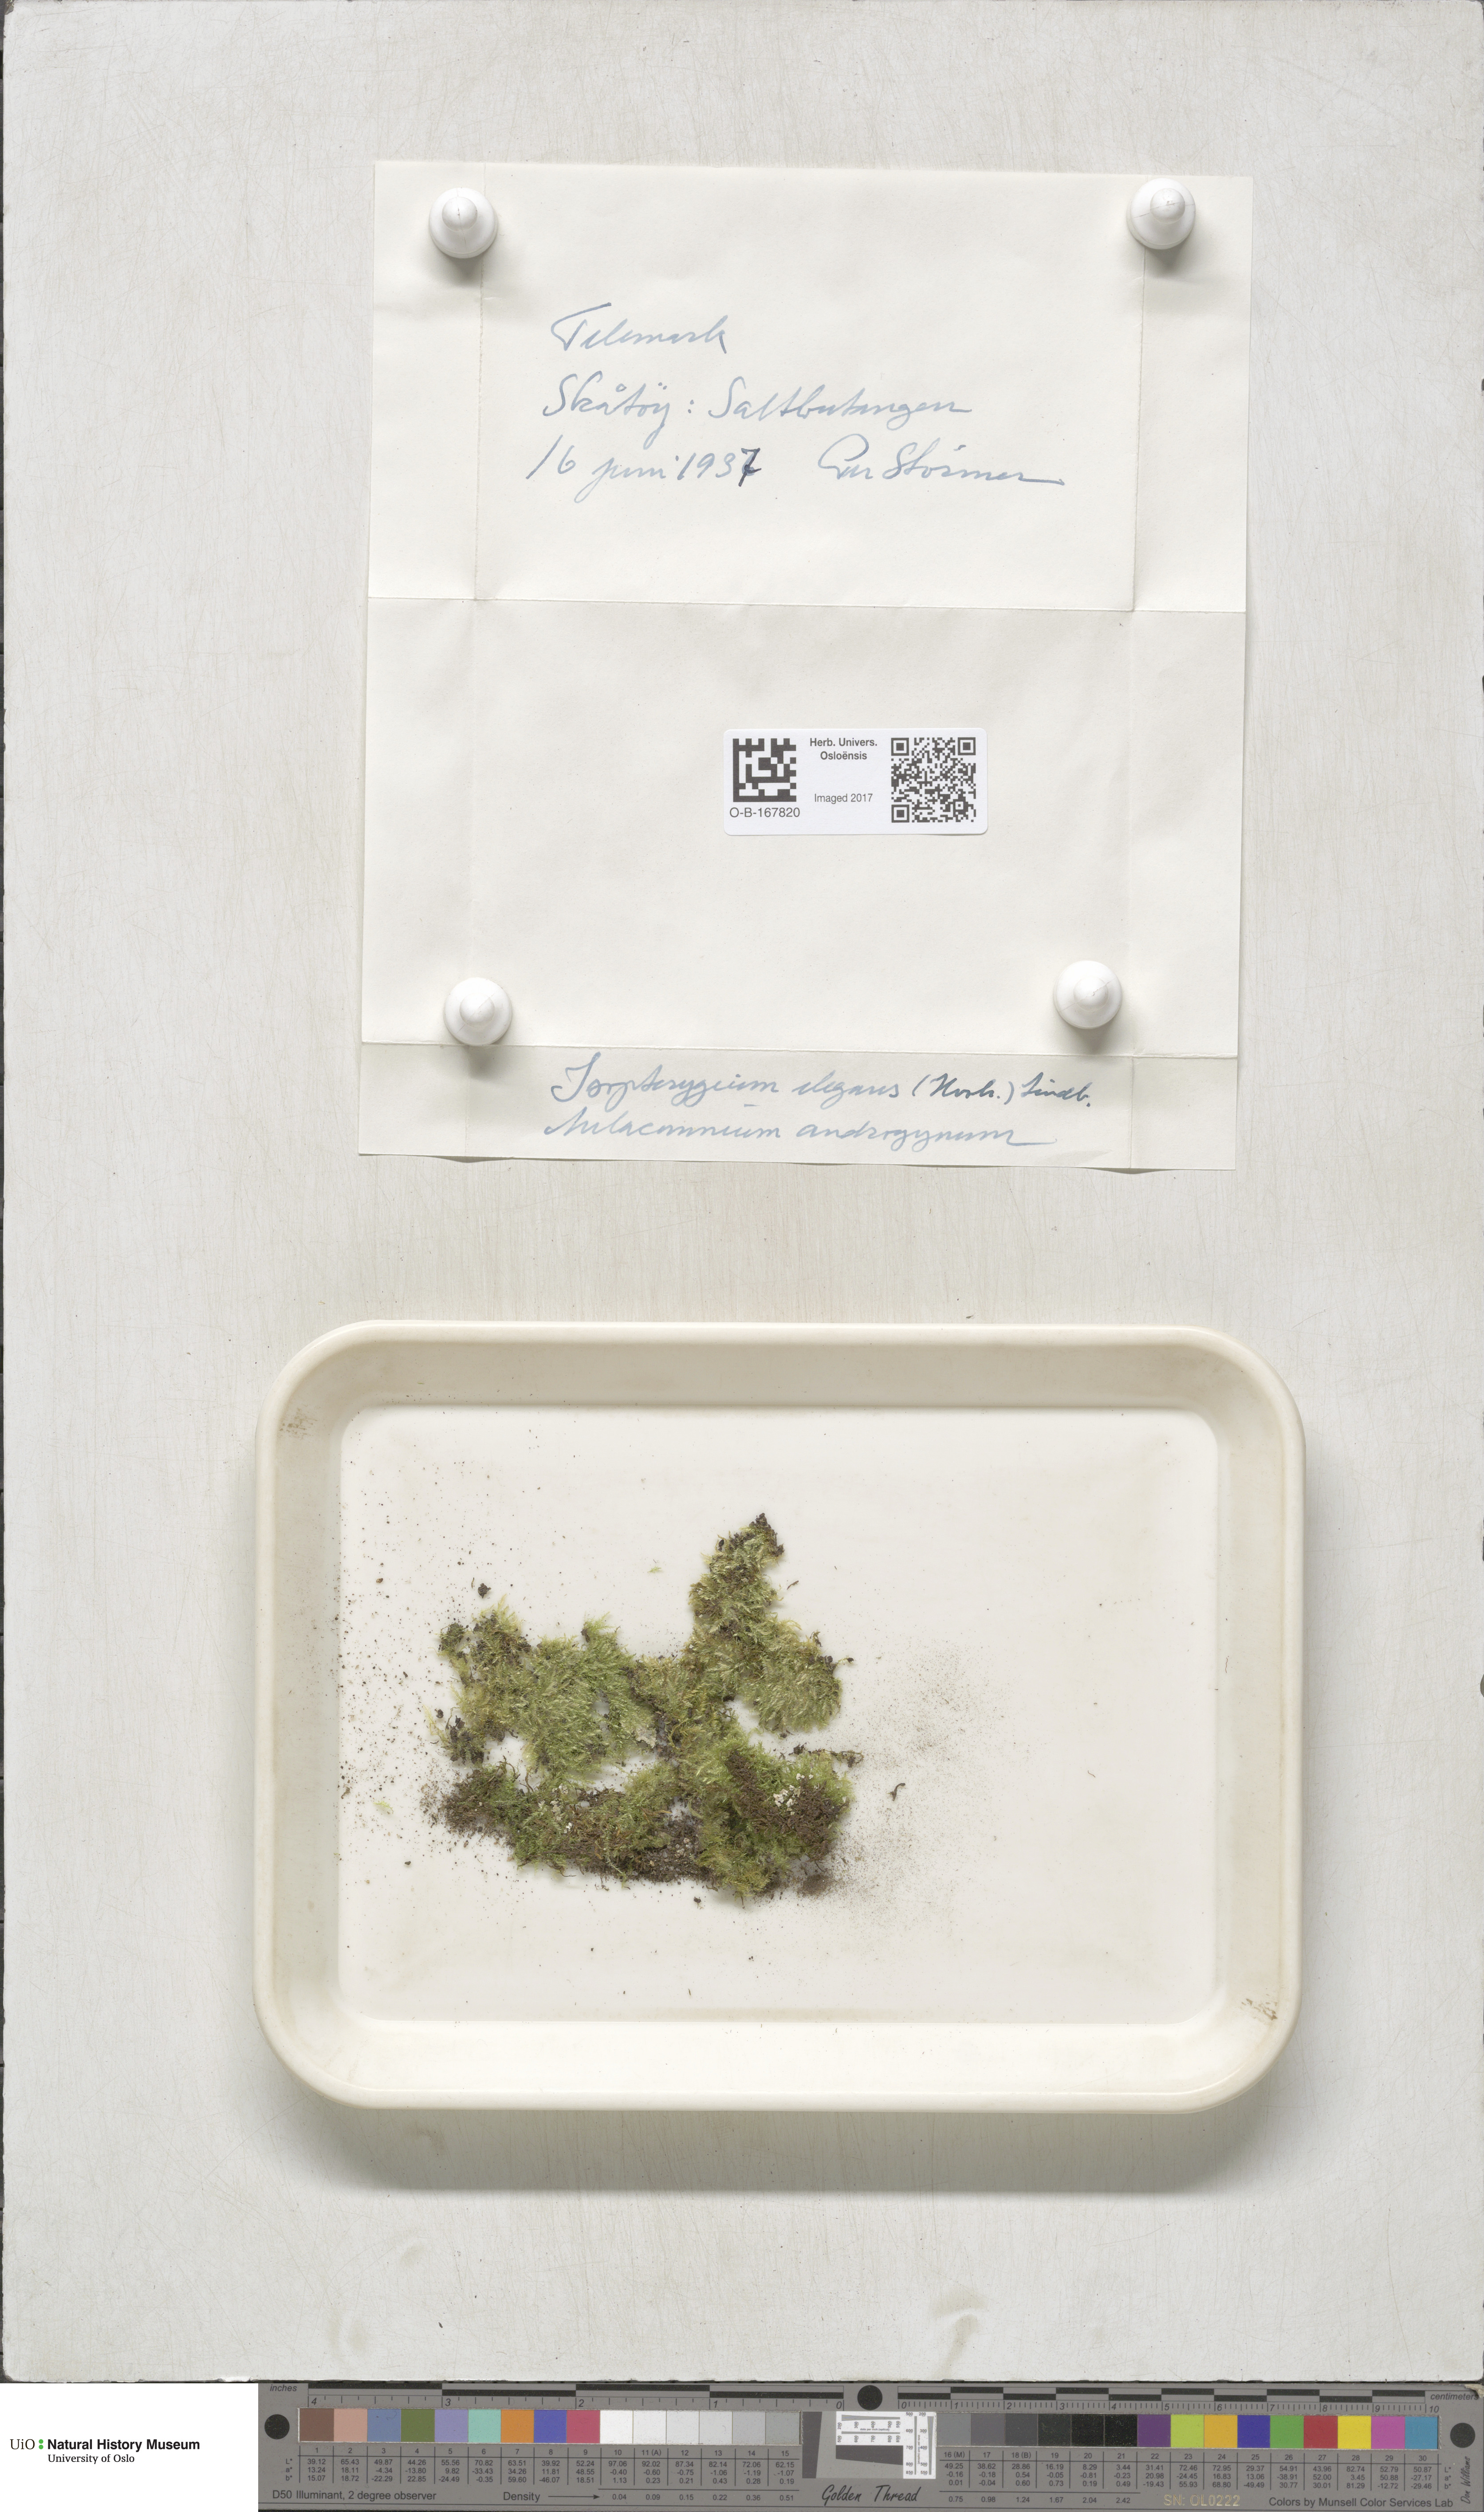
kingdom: Plantae
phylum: Bryophyta
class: Bryopsida
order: Hypnales
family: Plagiotheciaceae
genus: Pseudotaxiphyllum
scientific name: Pseudotaxiphyllum elegans
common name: Elegant silk moss
